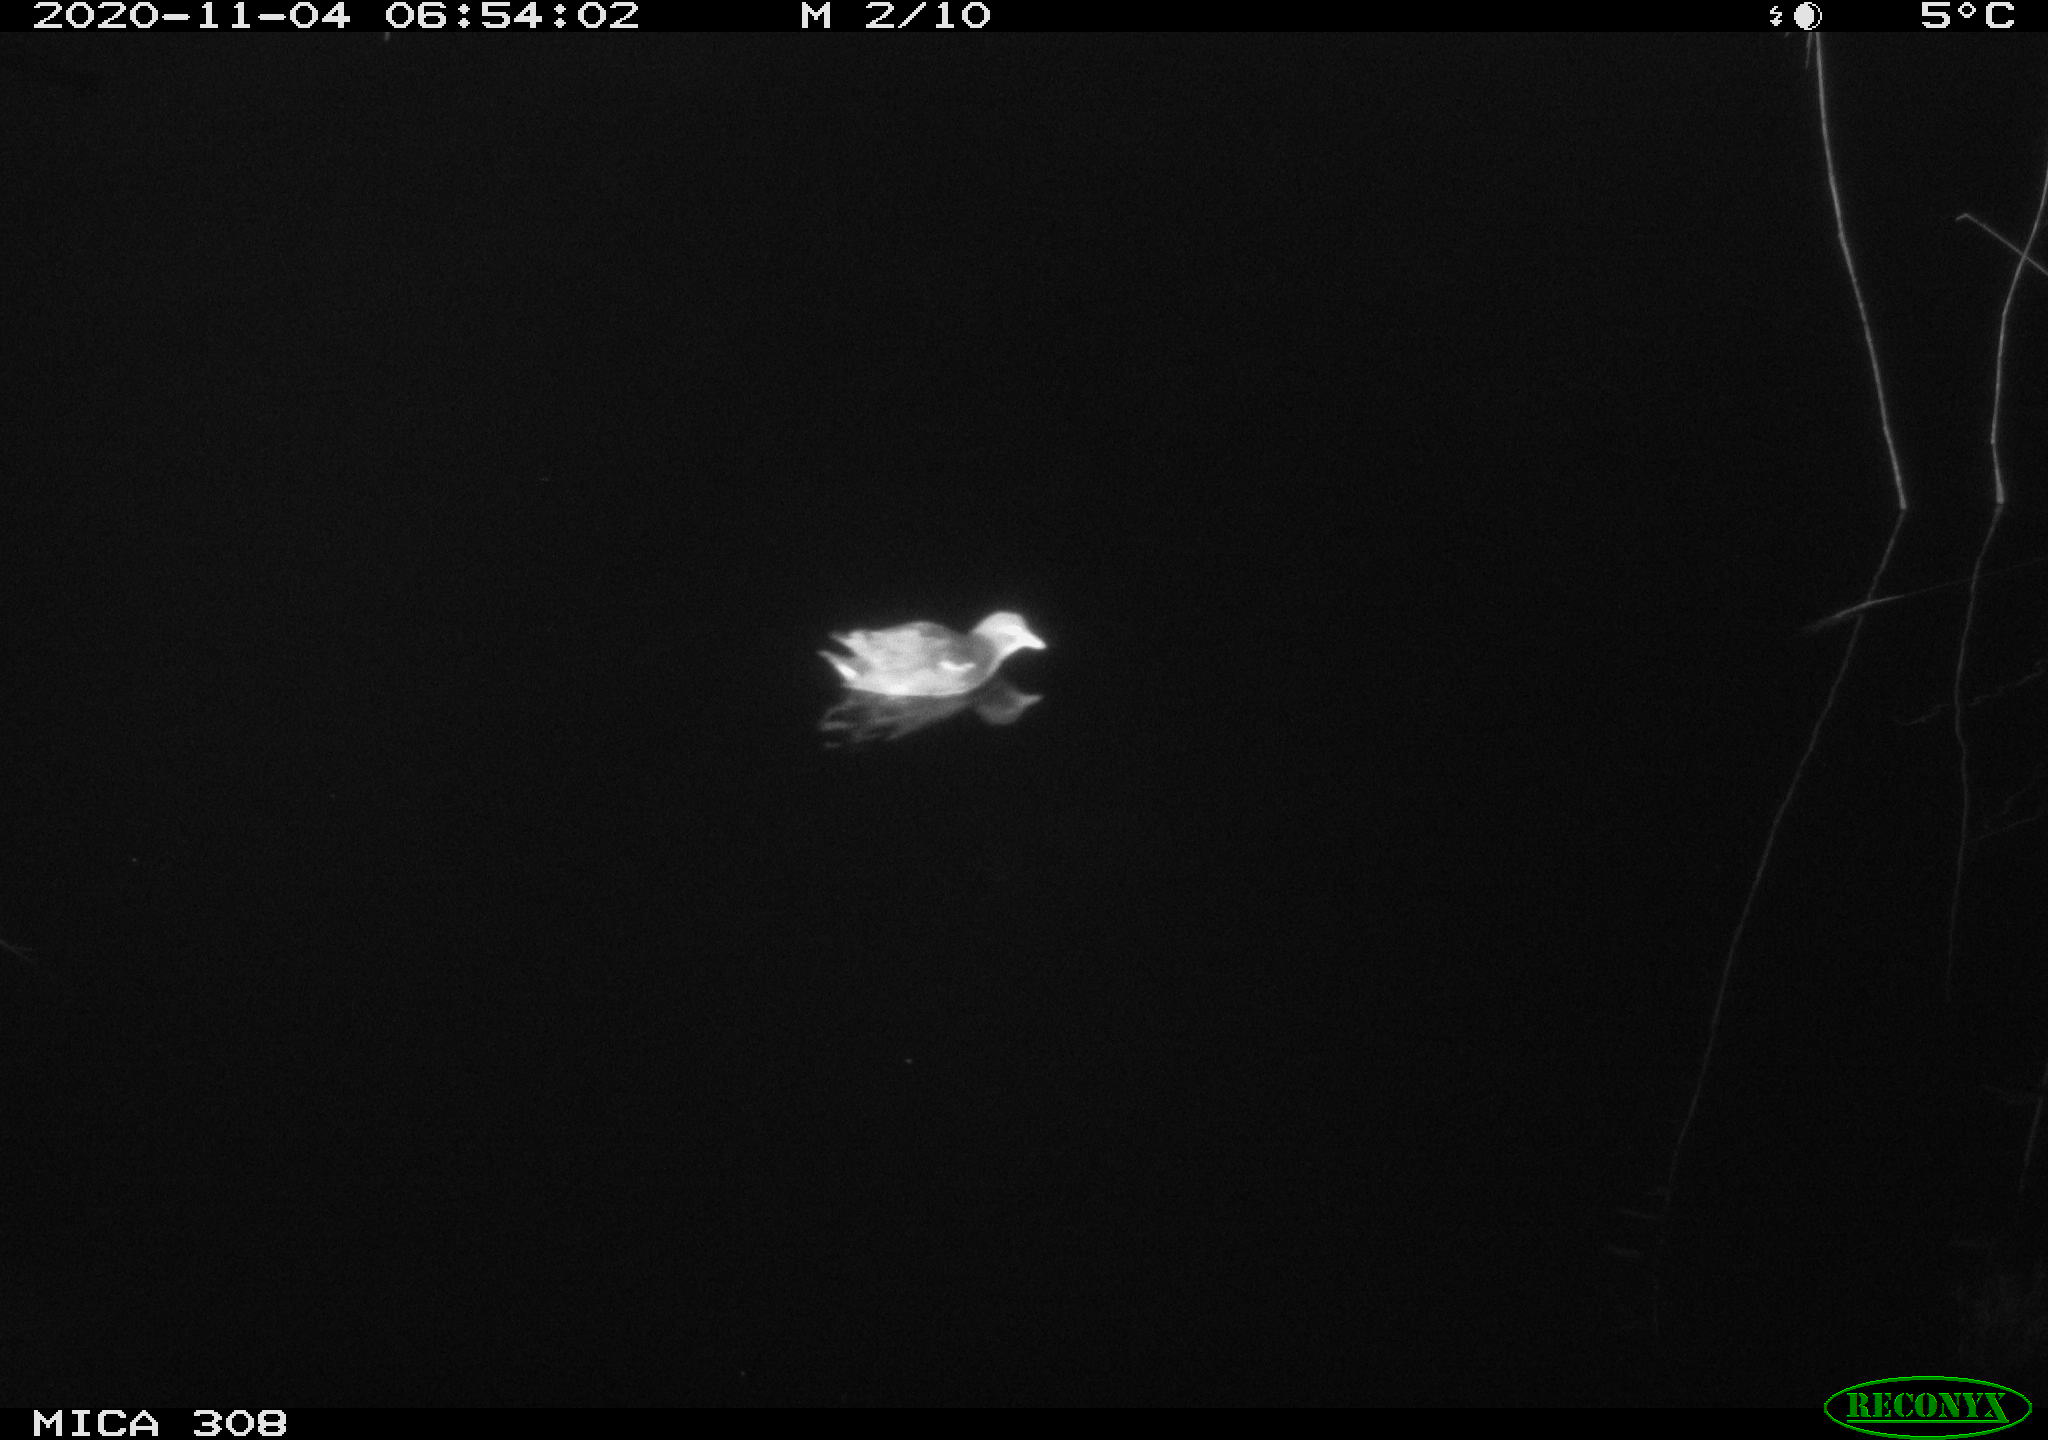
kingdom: Animalia
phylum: Chordata
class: Aves
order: Gruiformes
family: Rallidae
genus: Gallinula
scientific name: Gallinula chloropus
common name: Common moorhen
